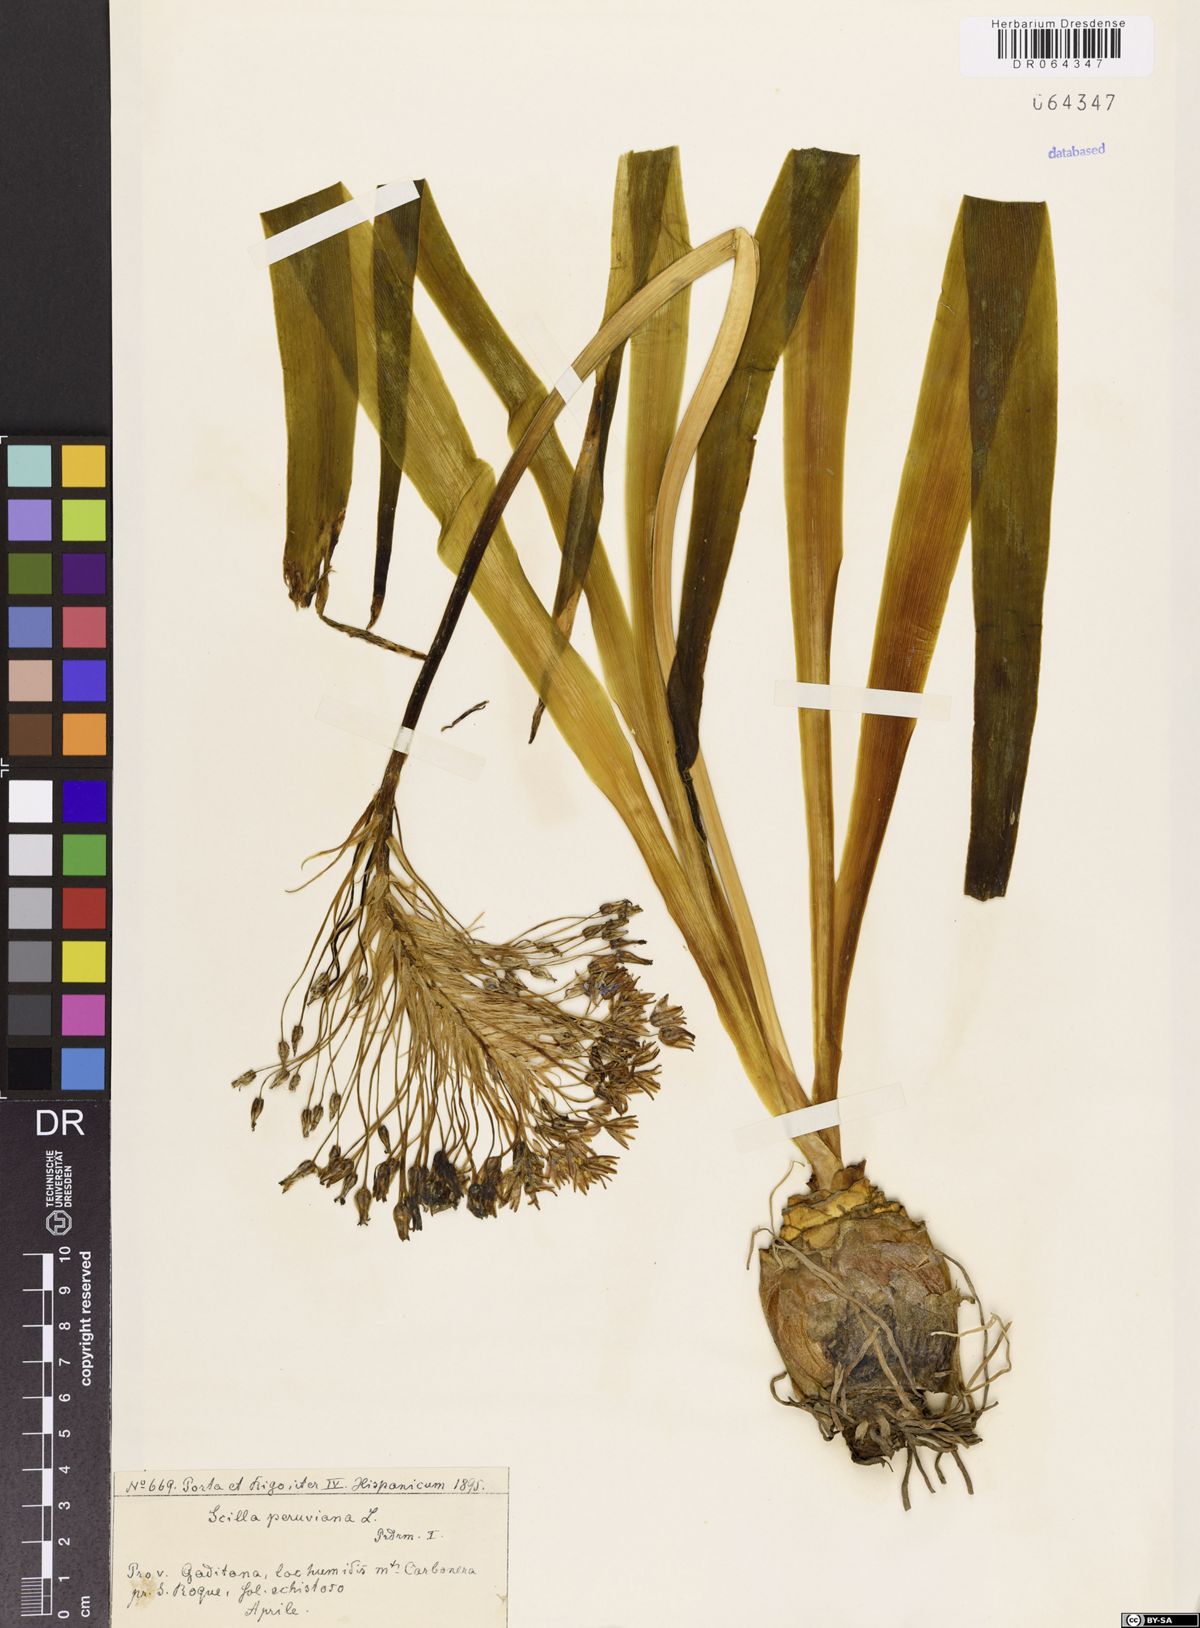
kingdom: Plantae
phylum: Tracheophyta
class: Liliopsida
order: Asparagales
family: Asparagaceae
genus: Scilla
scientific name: Scilla peruviana
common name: Portuguese squill
